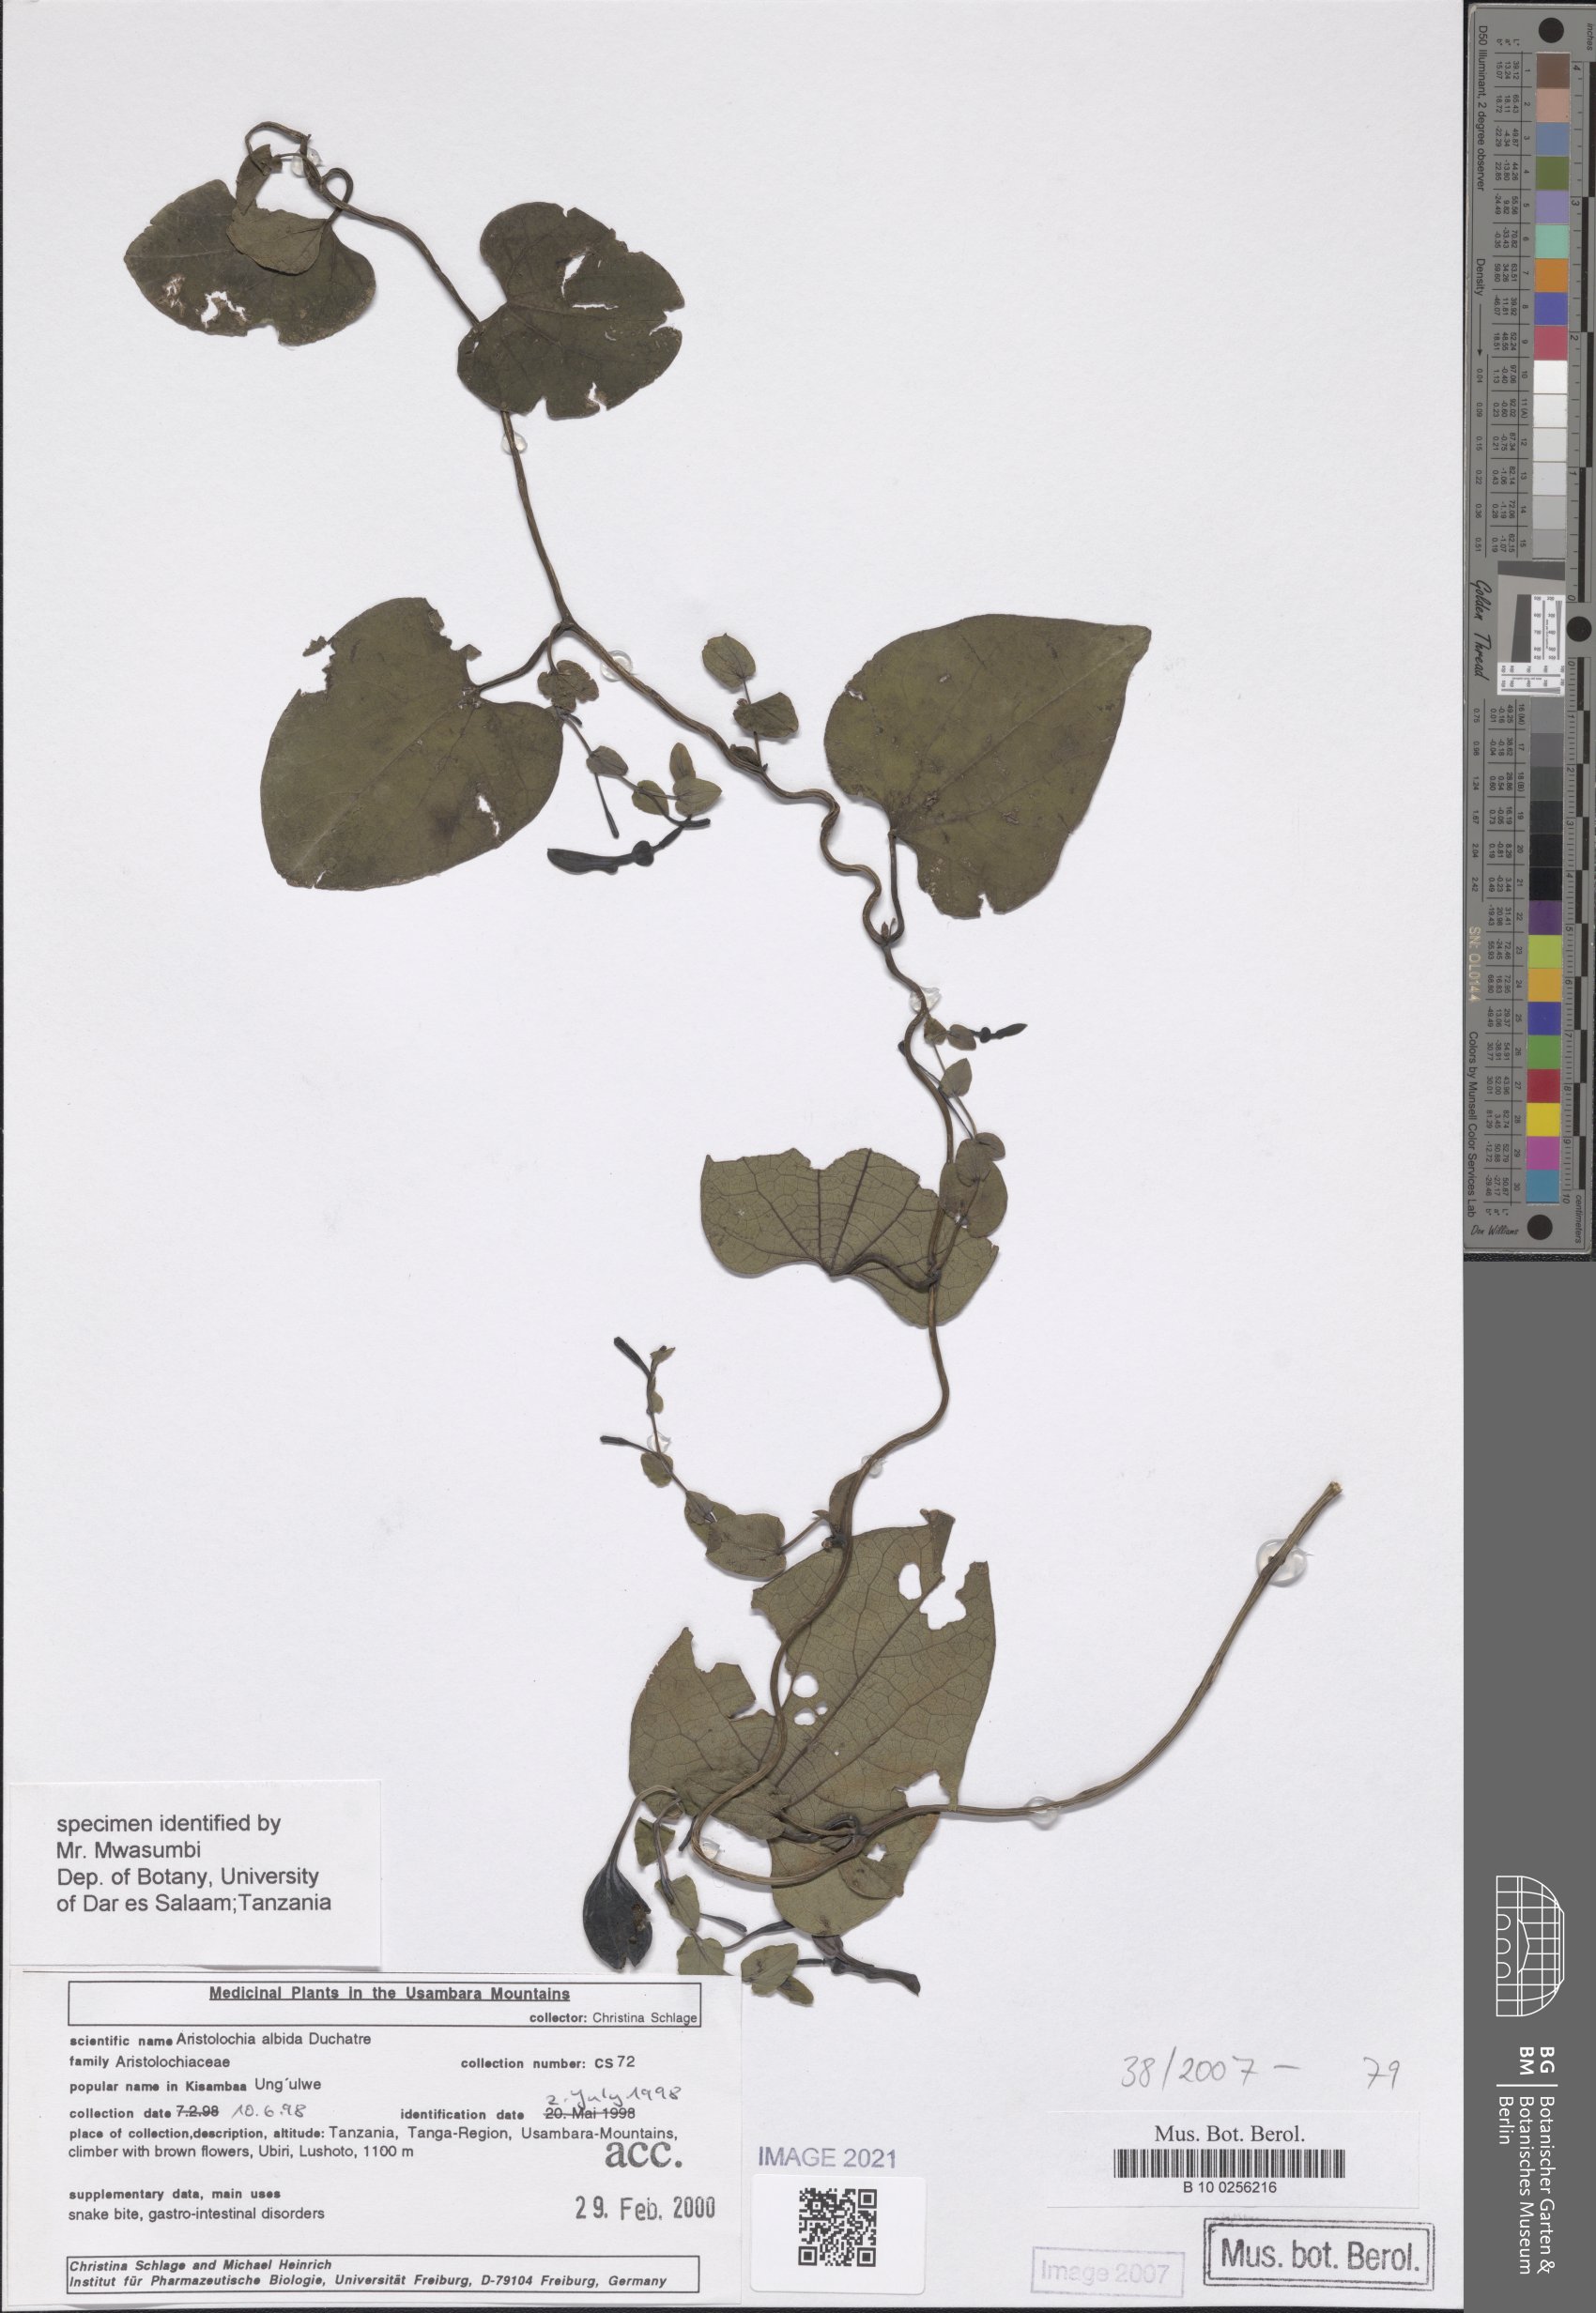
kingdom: Plantae
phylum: Tracheophyta
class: Magnoliopsida
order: Piperales
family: Aristolochiaceae
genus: Aristolochia
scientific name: Aristolochia albida
